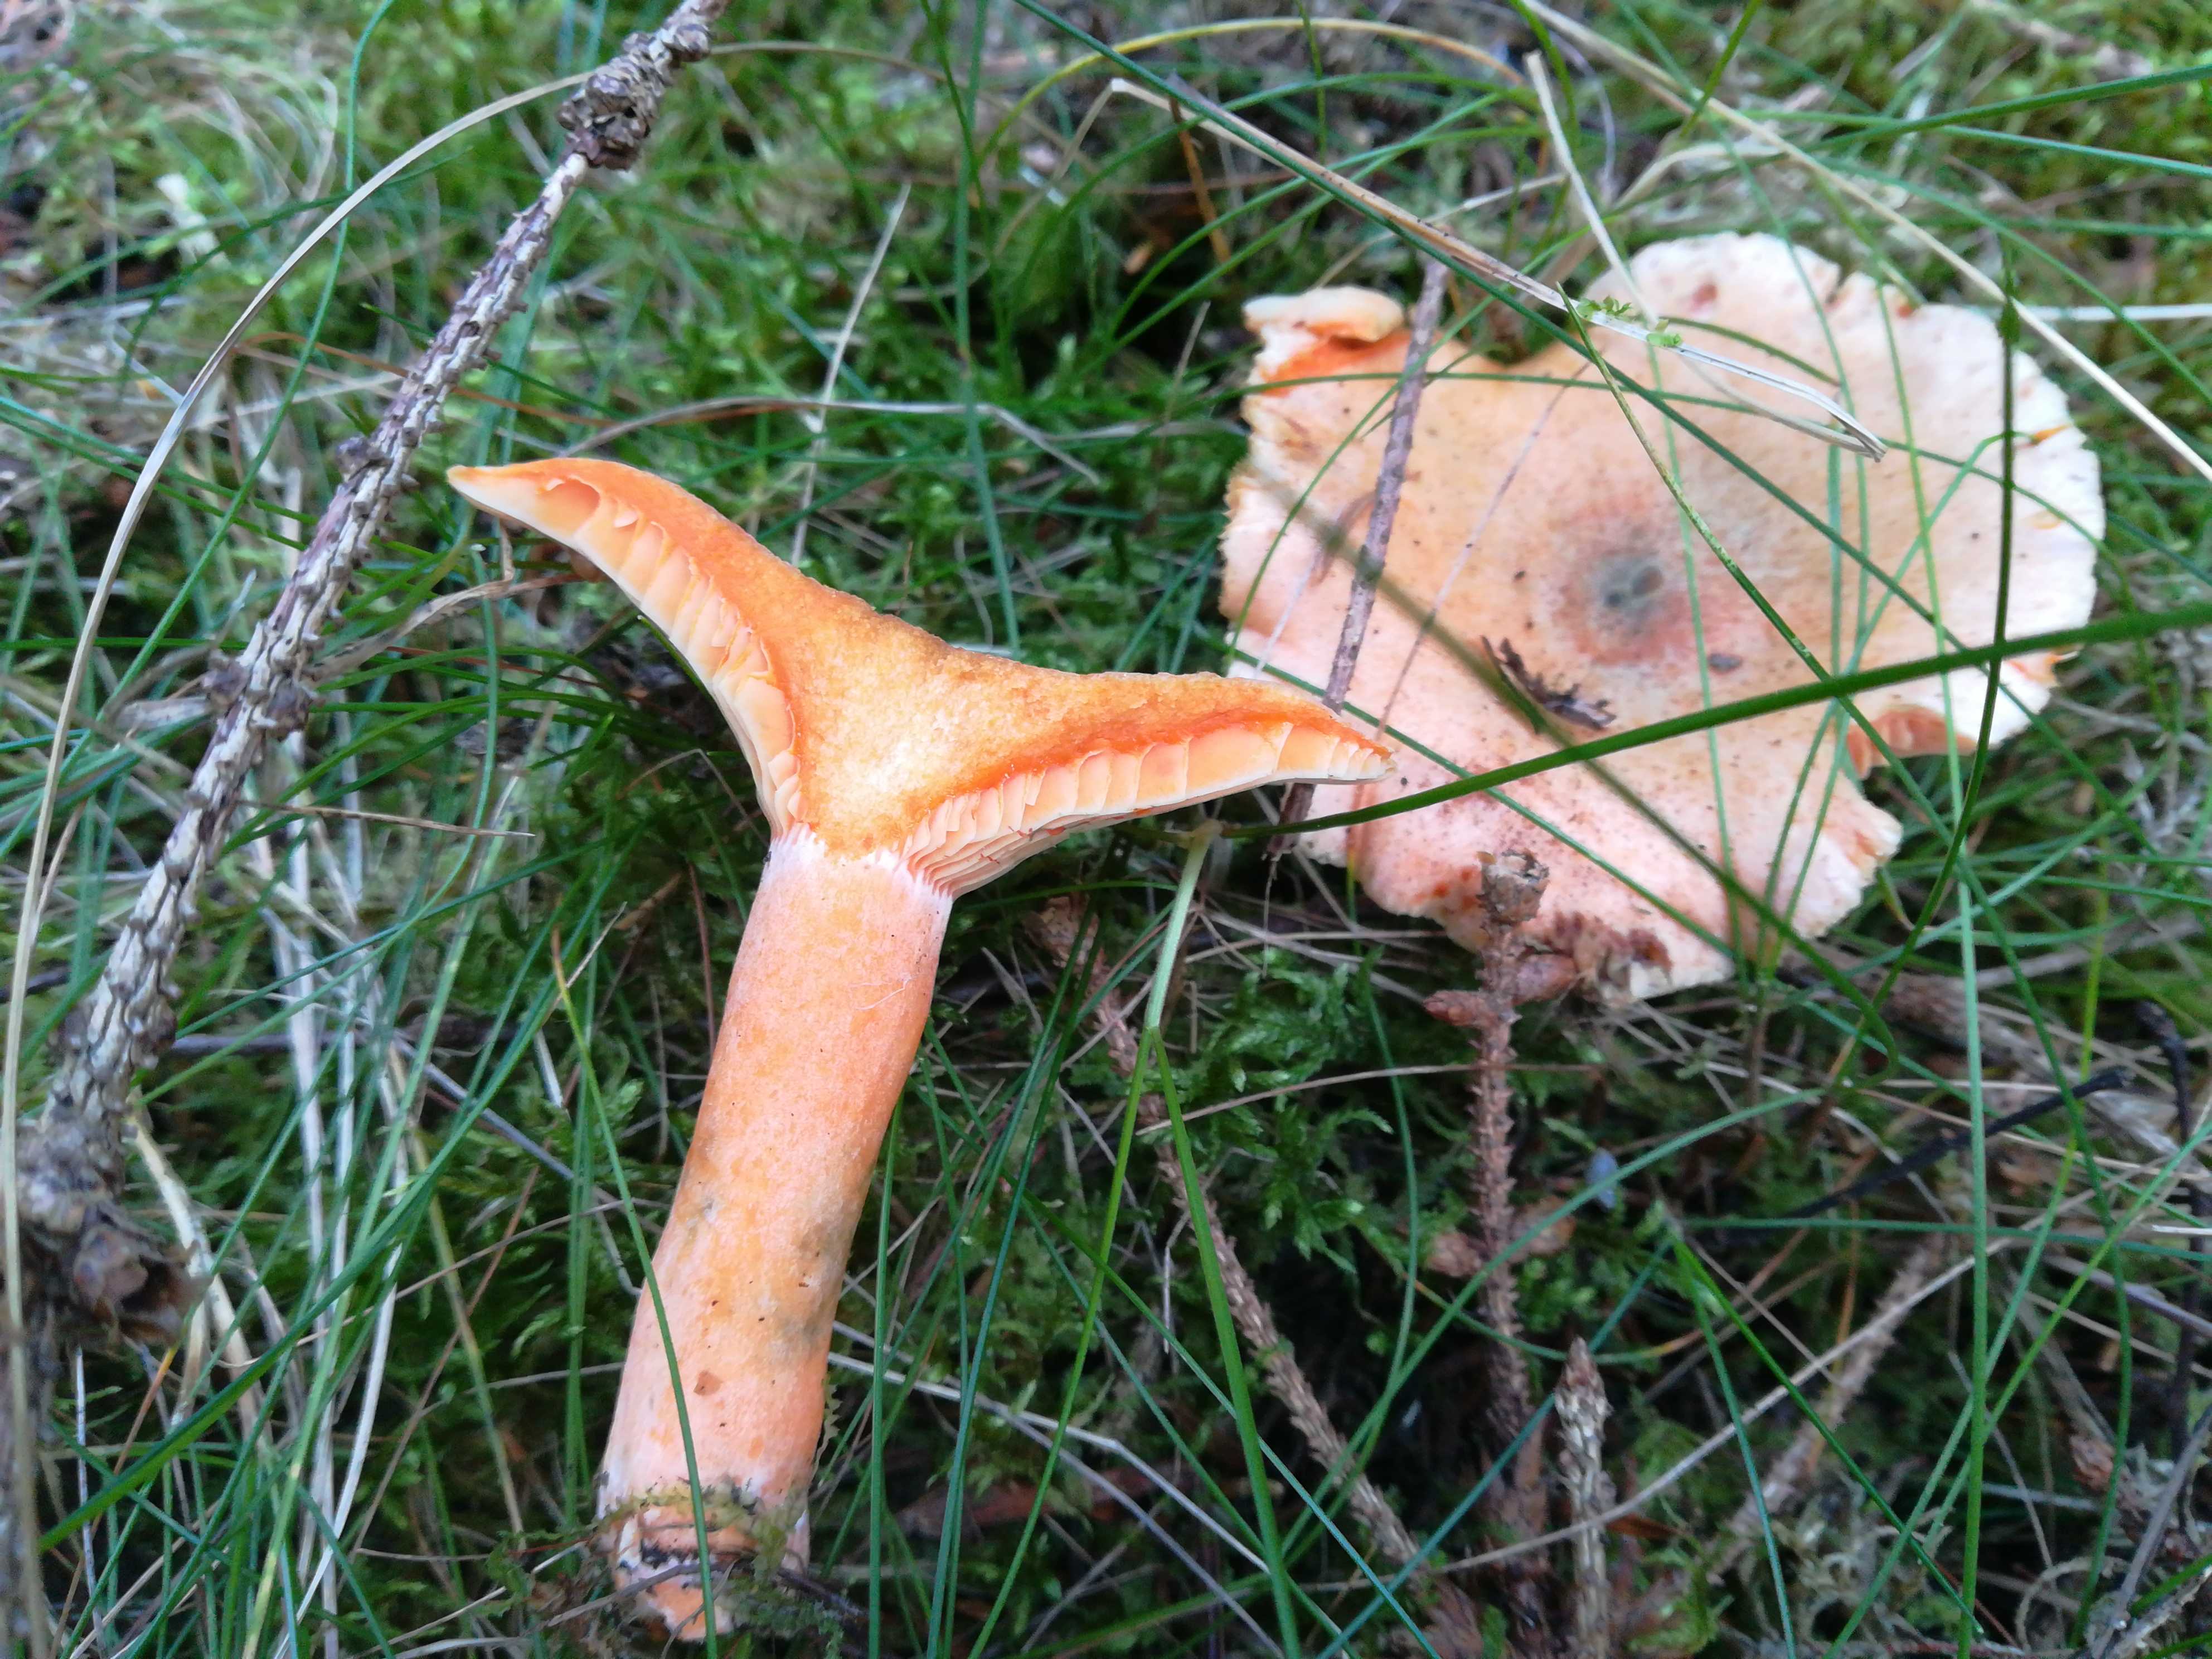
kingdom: Fungi
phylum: Basidiomycota
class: Agaricomycetes
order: Russulales
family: Russulaceae
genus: Lactarius
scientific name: Lactarius deterrimus
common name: gran-mælkehat
